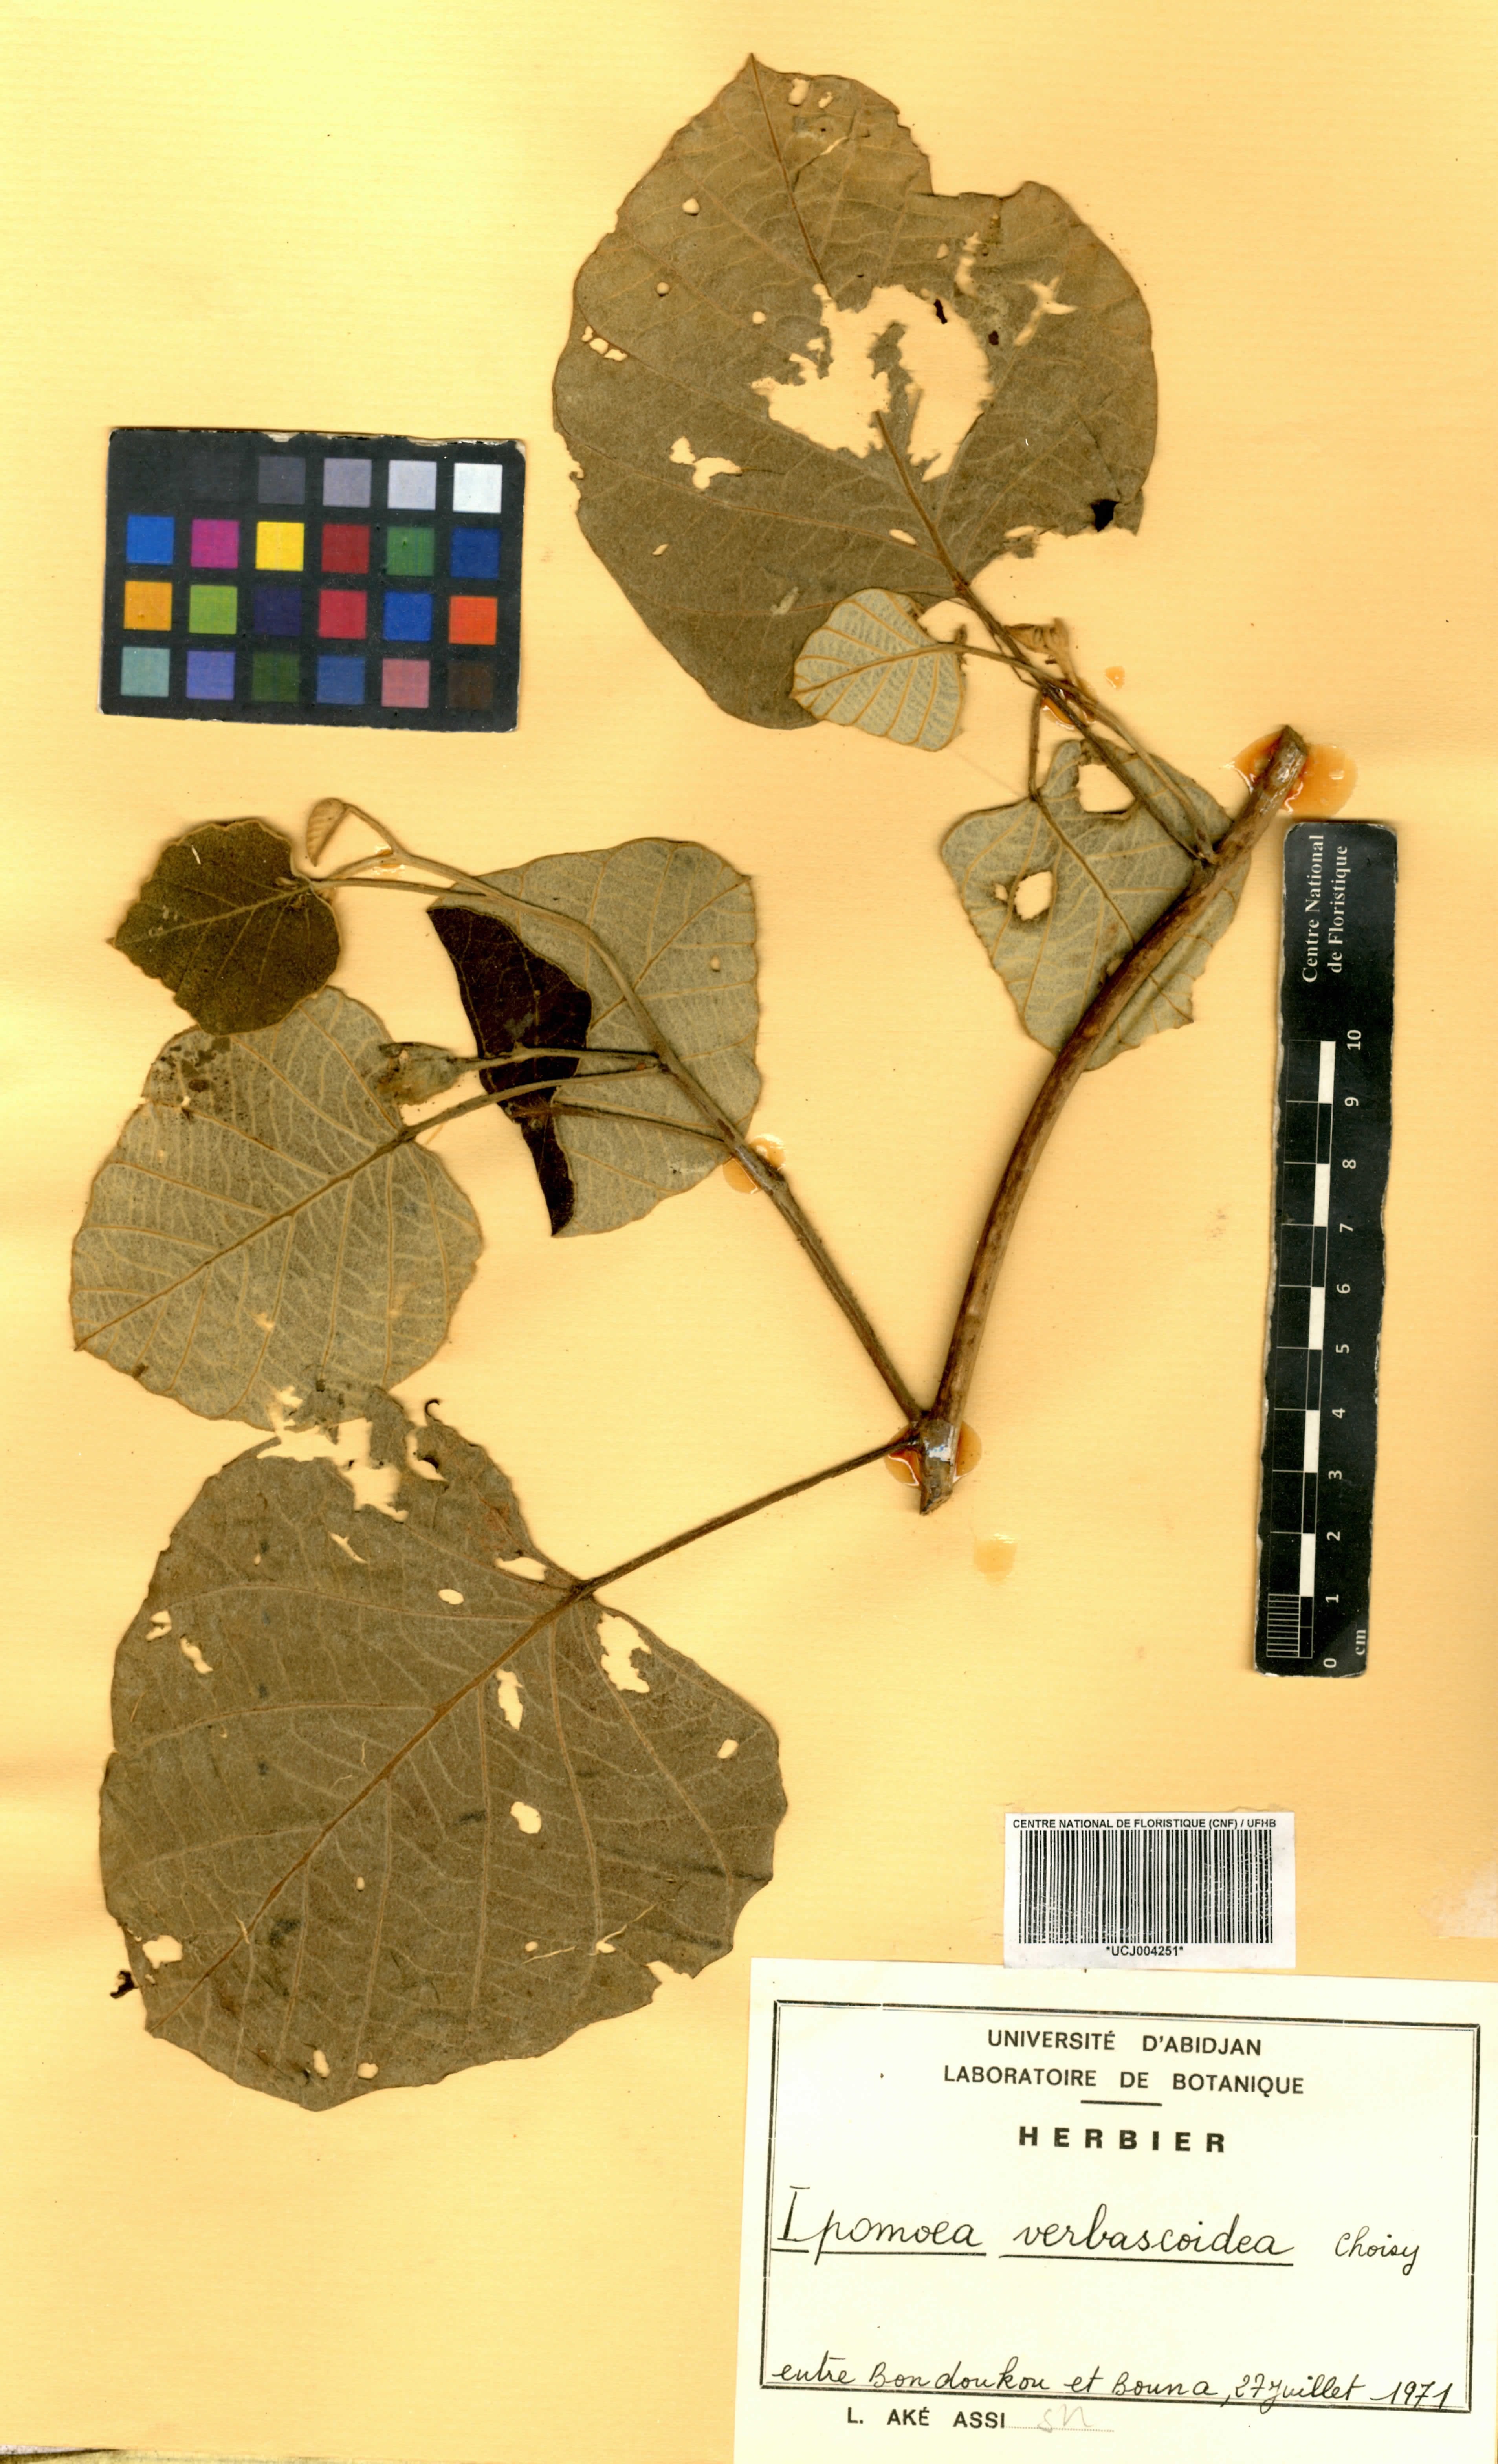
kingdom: Plantae
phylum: Tracheophyta
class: Magnoliopsida
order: Solanales
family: Convolvulaceae
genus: Ipomoea
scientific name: Ipomoea verbascoidea
